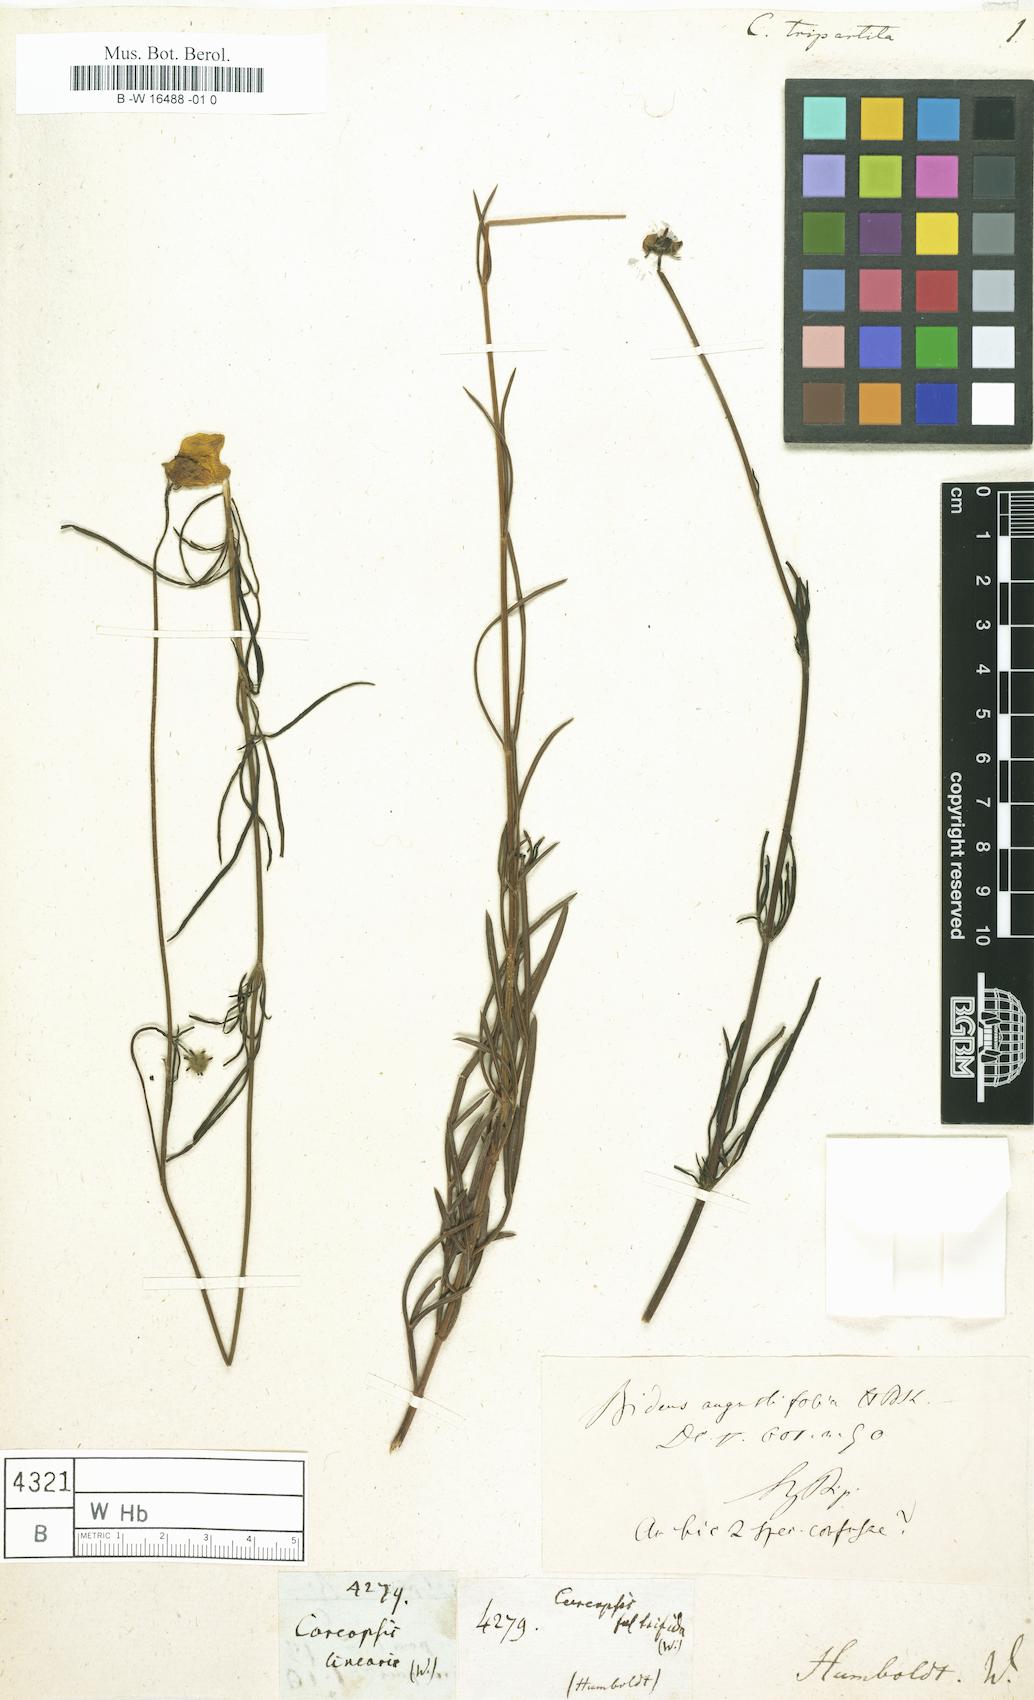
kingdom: Plantae
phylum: Tracheophyta
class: Magnoliopsida
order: Asterales
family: Asteraceae
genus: Bidens
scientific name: Bidens chippii
